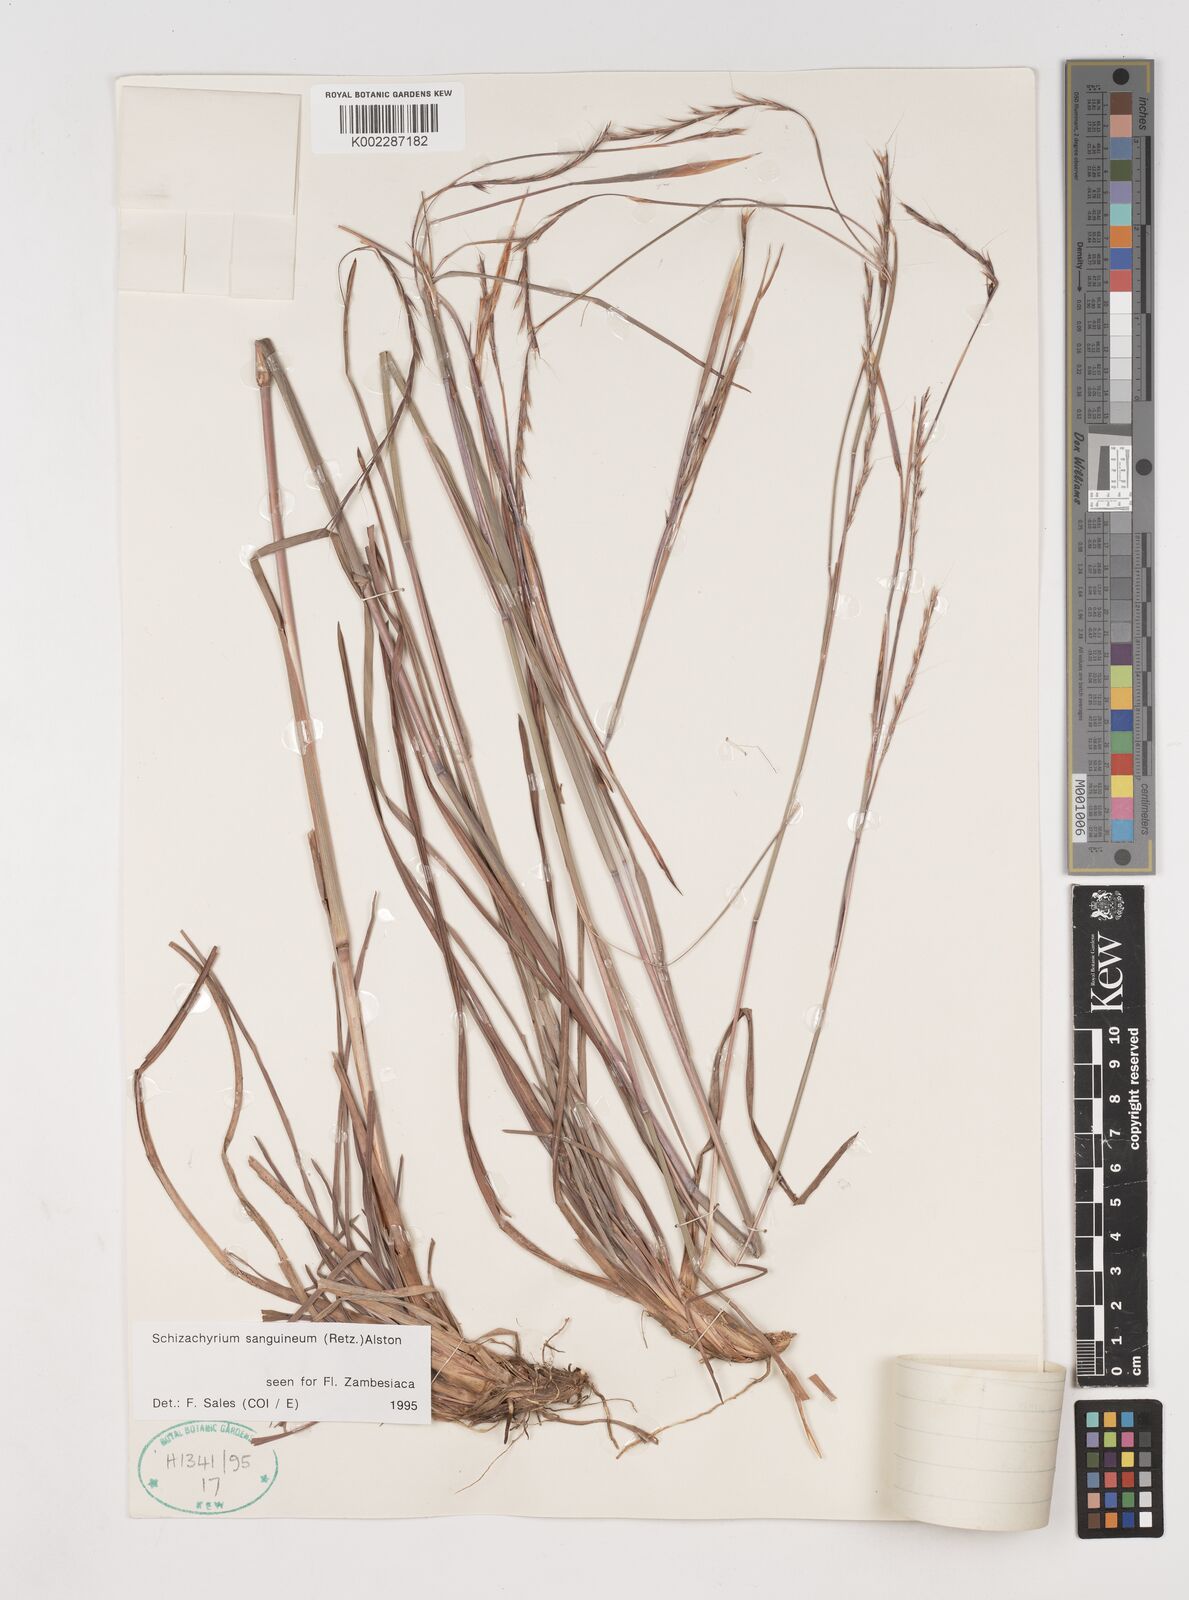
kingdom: Plantae
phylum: Tracheophyta
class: Liliopsida
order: Poales
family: Poaceae
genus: Schizachyrium
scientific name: Schizachyrium sanguineum
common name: Crimson bluestem
